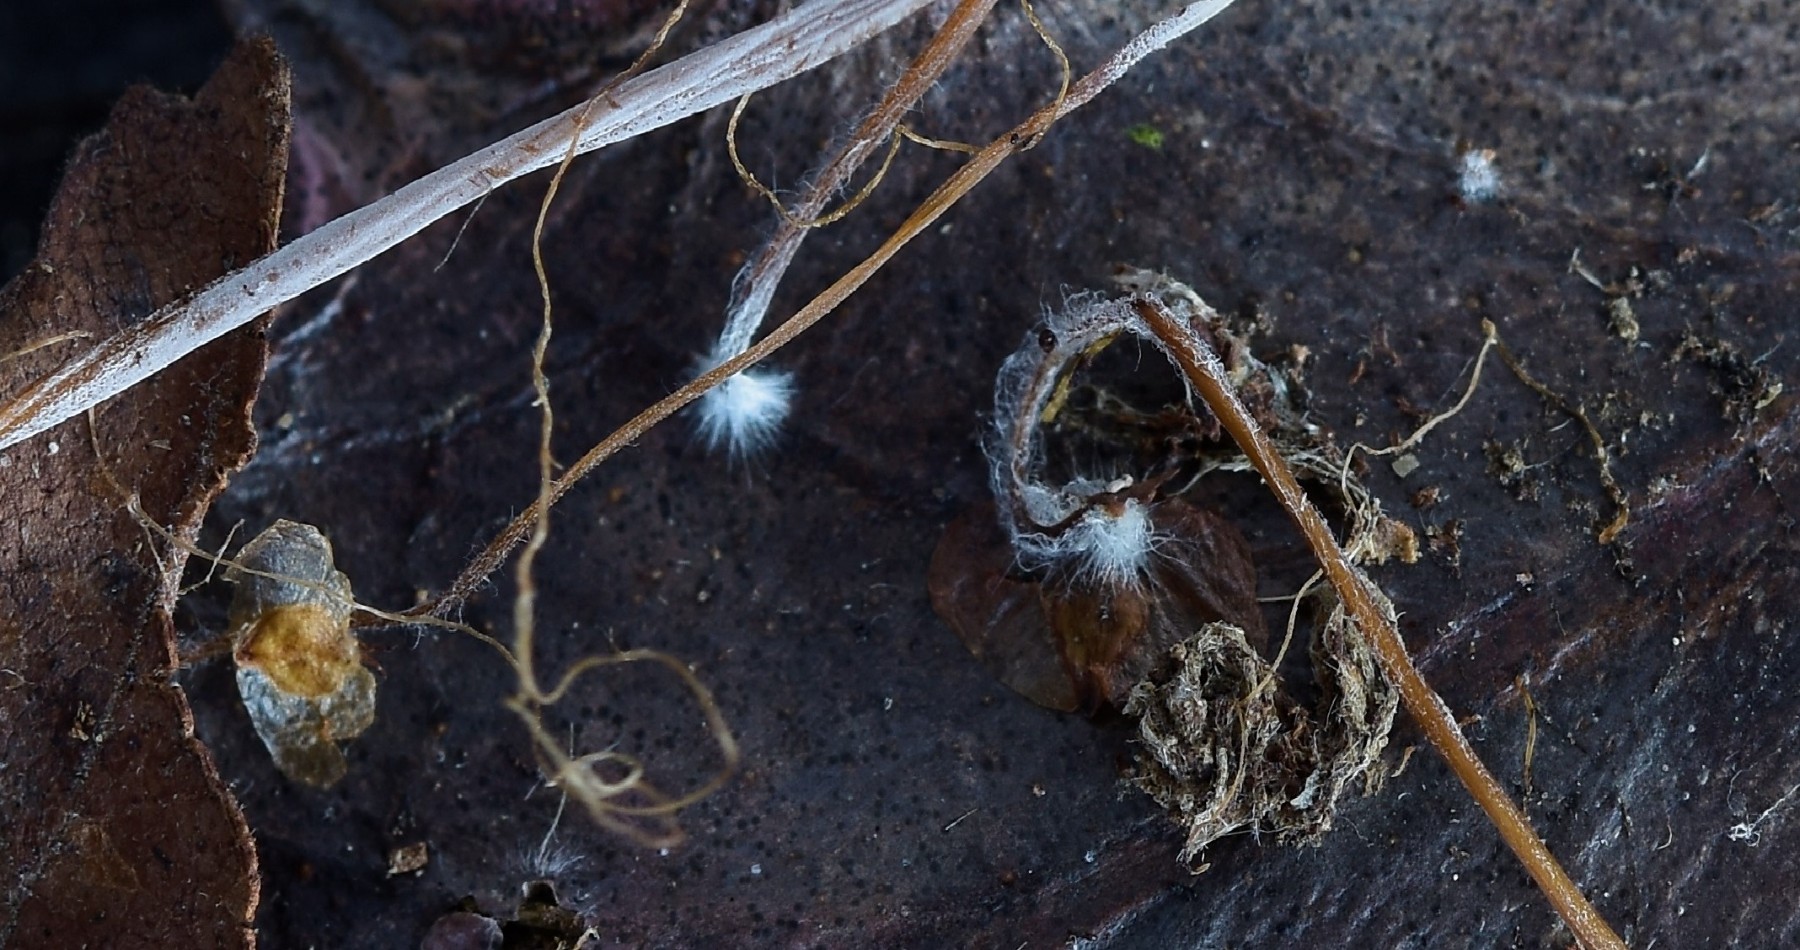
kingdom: Fungi
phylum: Basidiomycota
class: Agaricomycetes
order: Agaricales
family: Typhulaceae
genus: Typhula
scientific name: Typhula juncea
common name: trådagtig rørkølle
